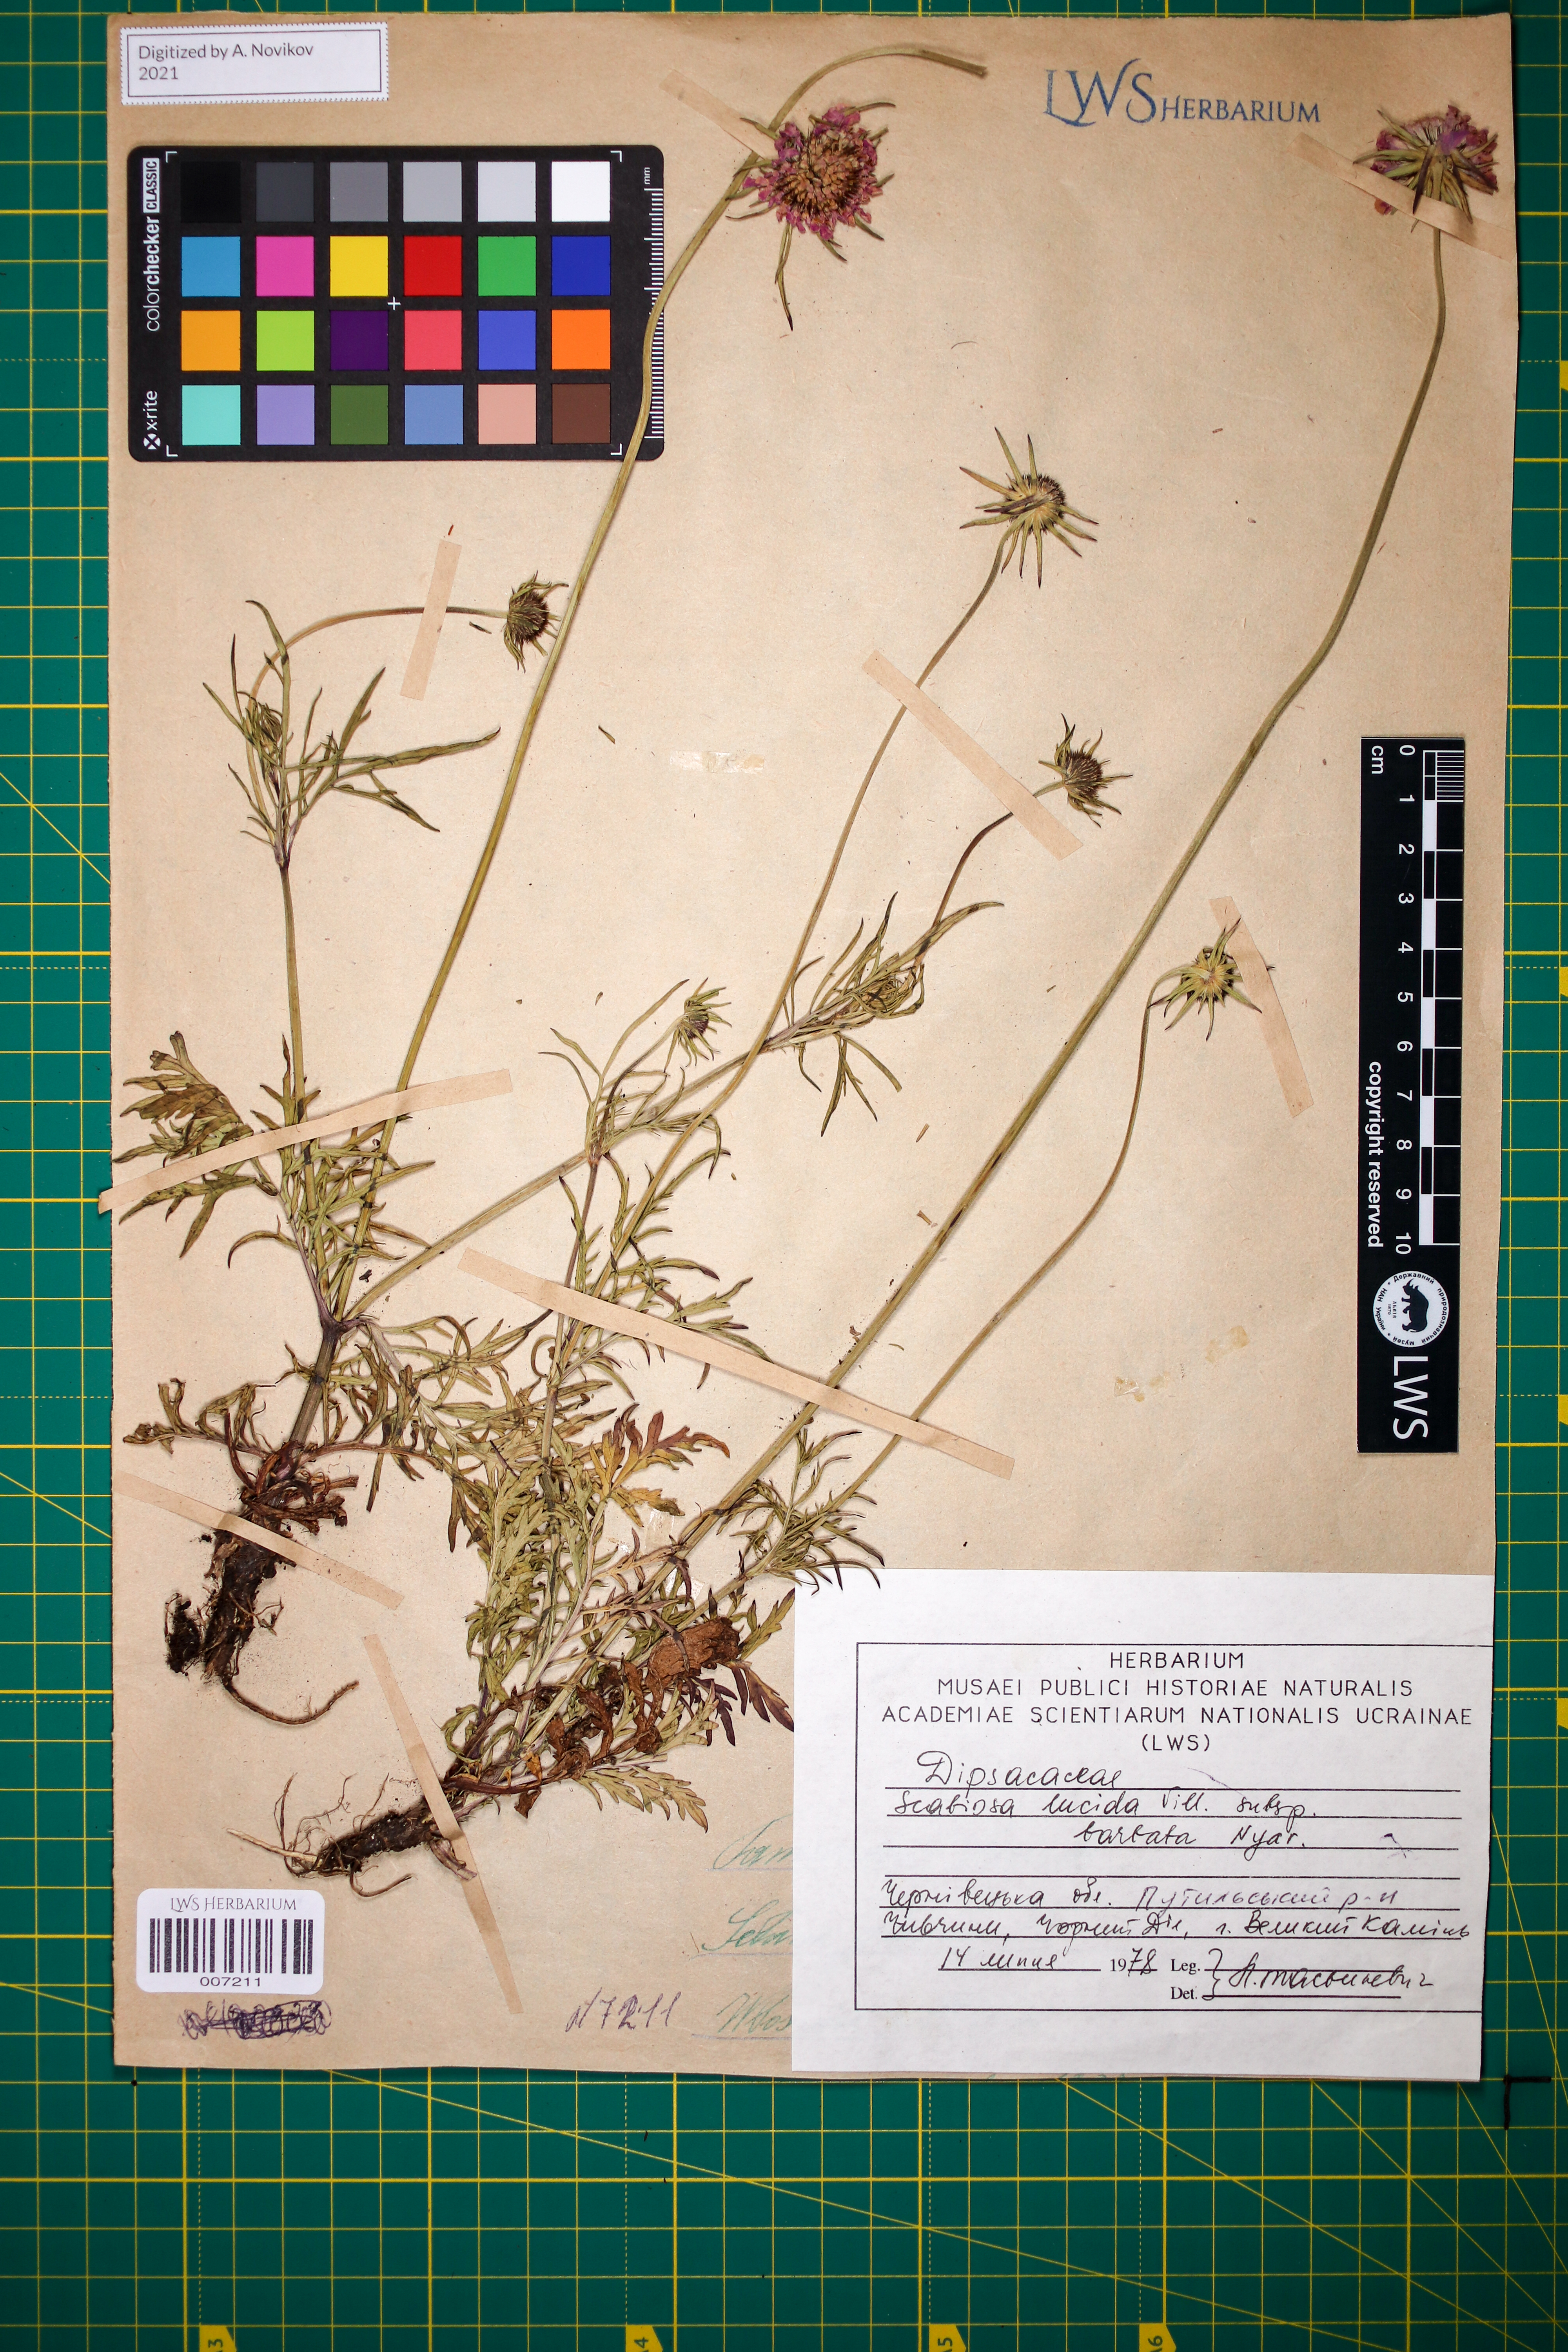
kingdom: Plantae
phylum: Tracheophyta
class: Magnoliopsida
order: Dipsacales
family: Caprifoliaceae
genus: Scabiosa
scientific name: Scabiosa lucida
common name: Shining scabious
